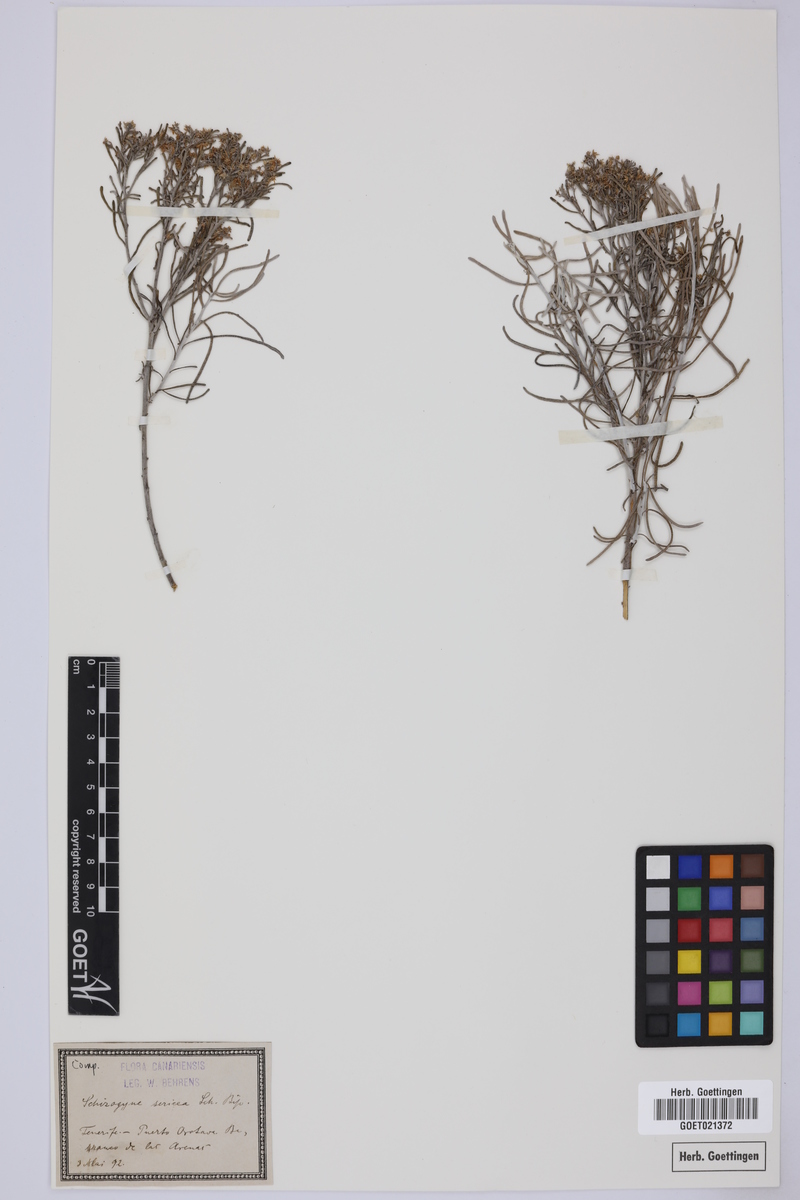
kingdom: Plantae
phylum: Tracheophyta
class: Magnoliopsida
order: Asterales
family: Asteraceae
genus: Schizogyne
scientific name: Schizogyne sericea
